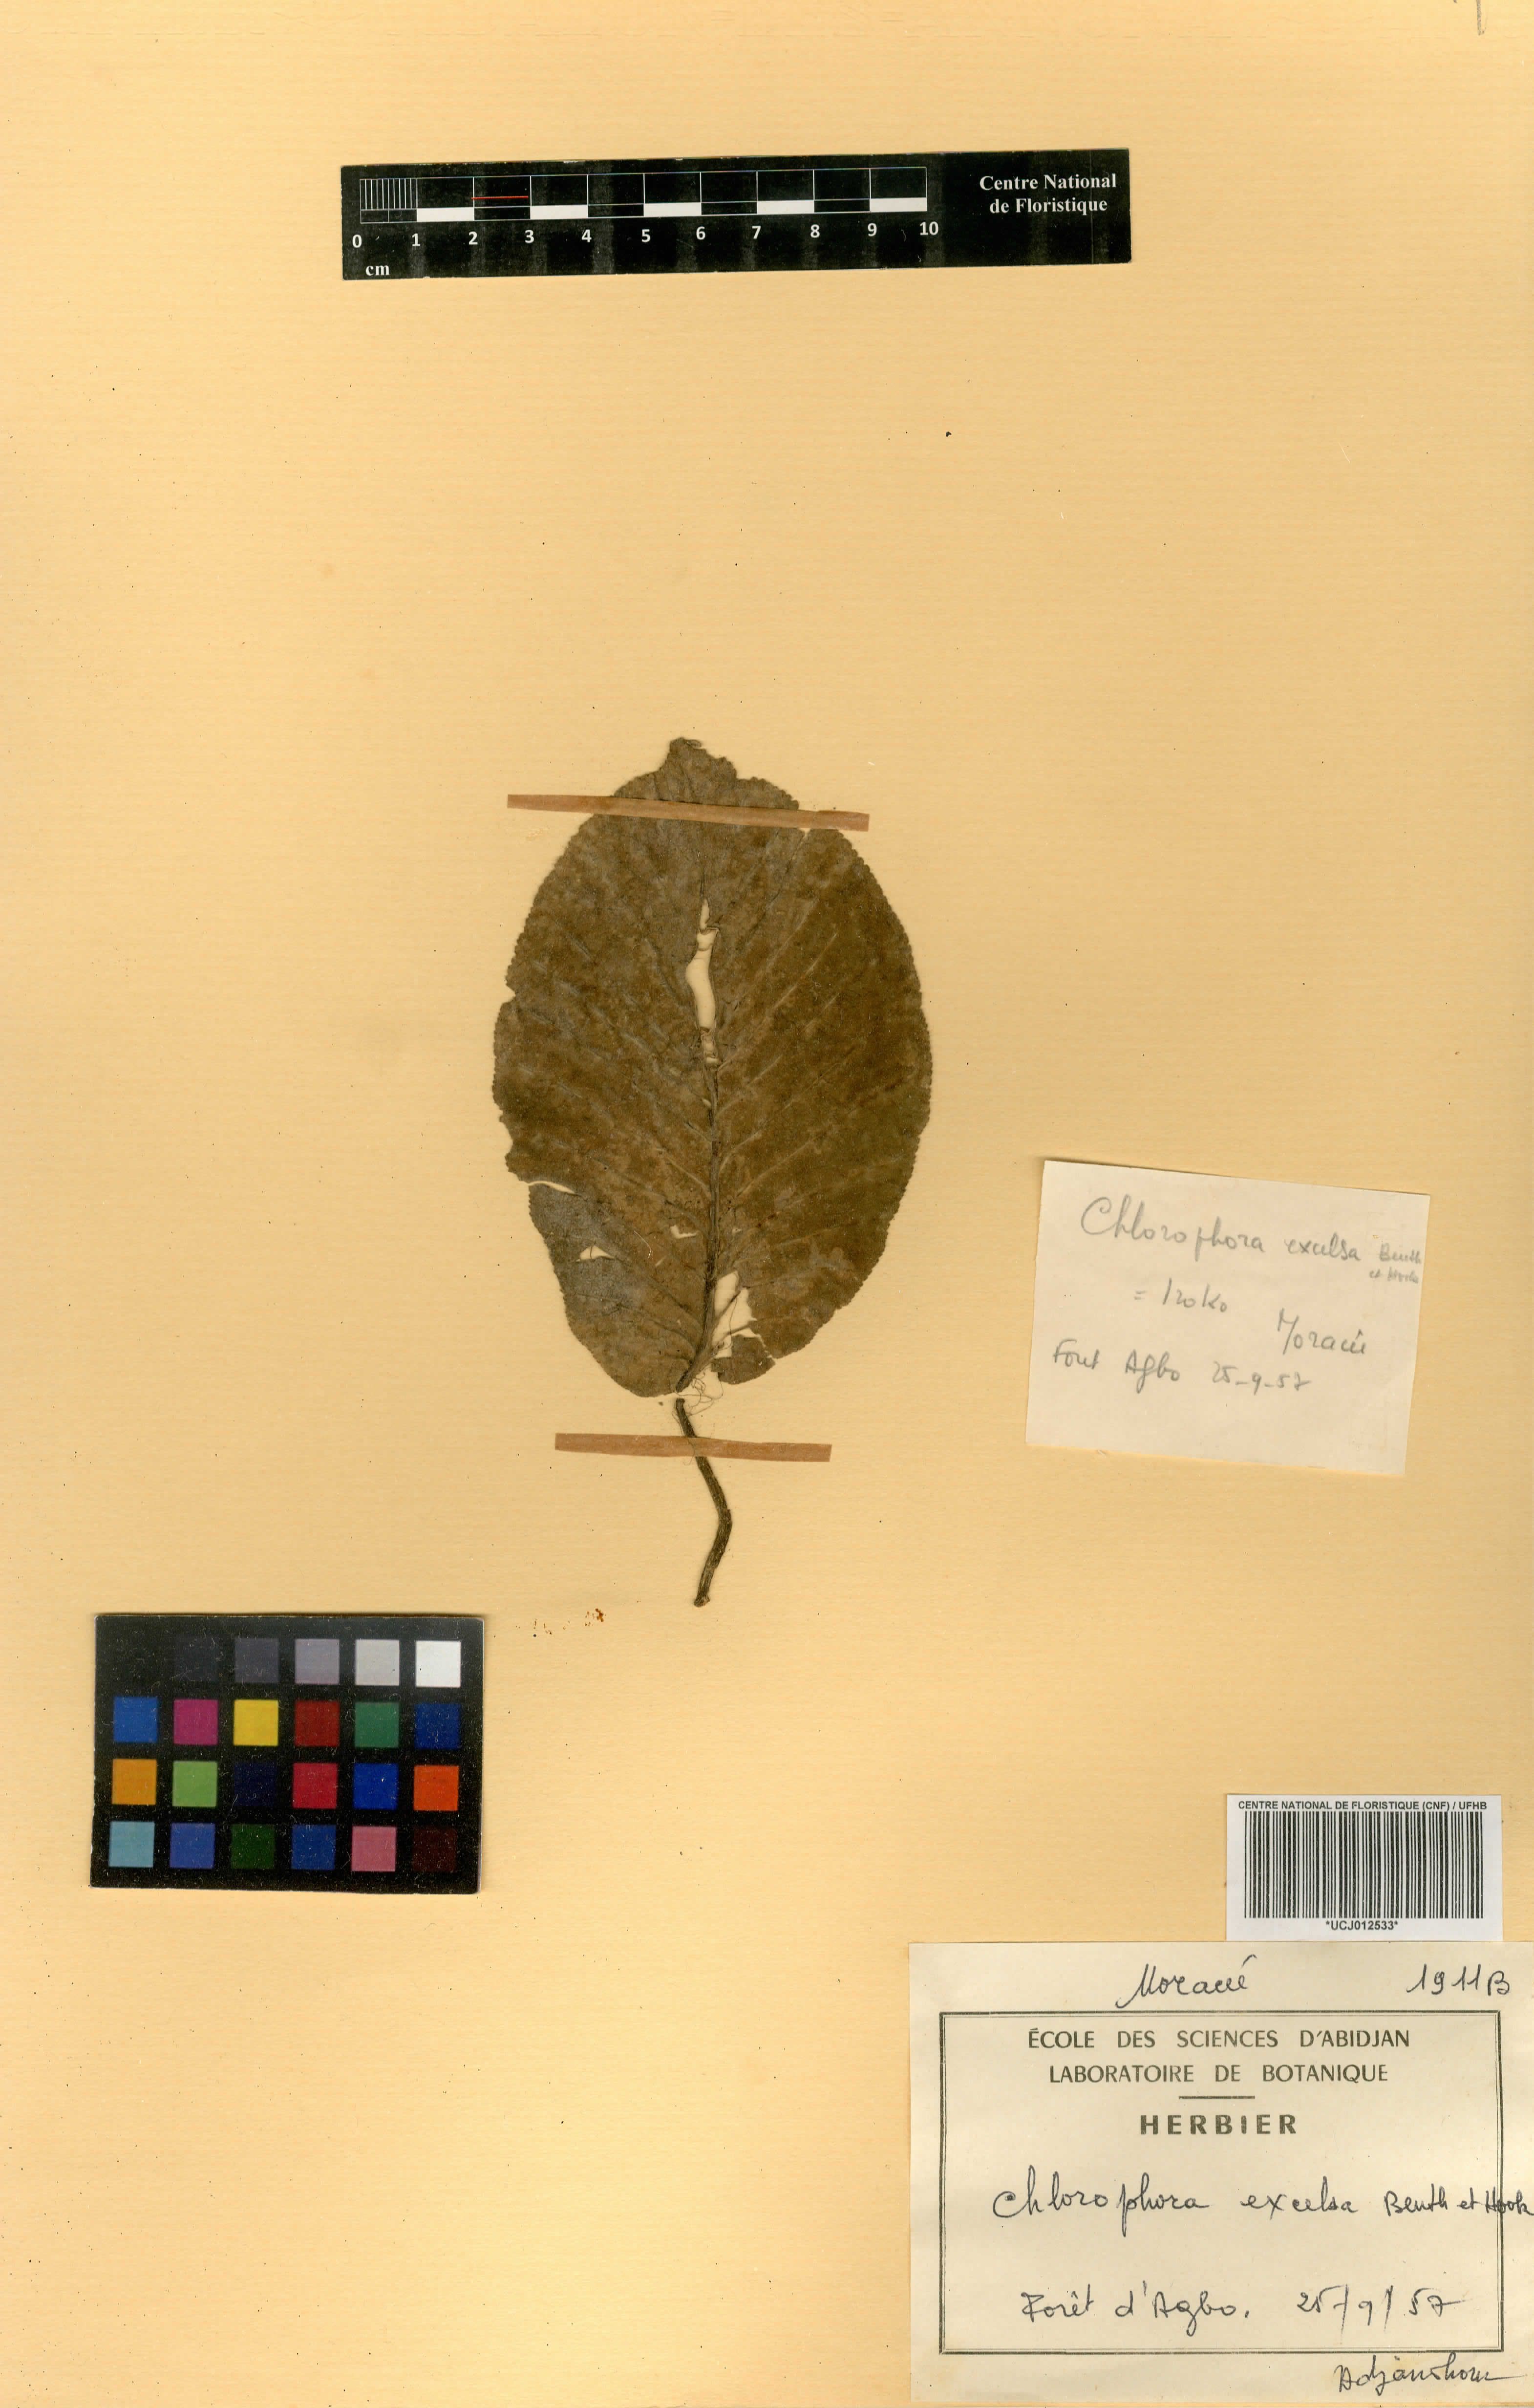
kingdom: Plantae
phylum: Tracheophyta
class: Magnoliopsida
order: Rosales
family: Moraceae
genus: Milicia
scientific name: Milicia excelsa
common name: African teak
